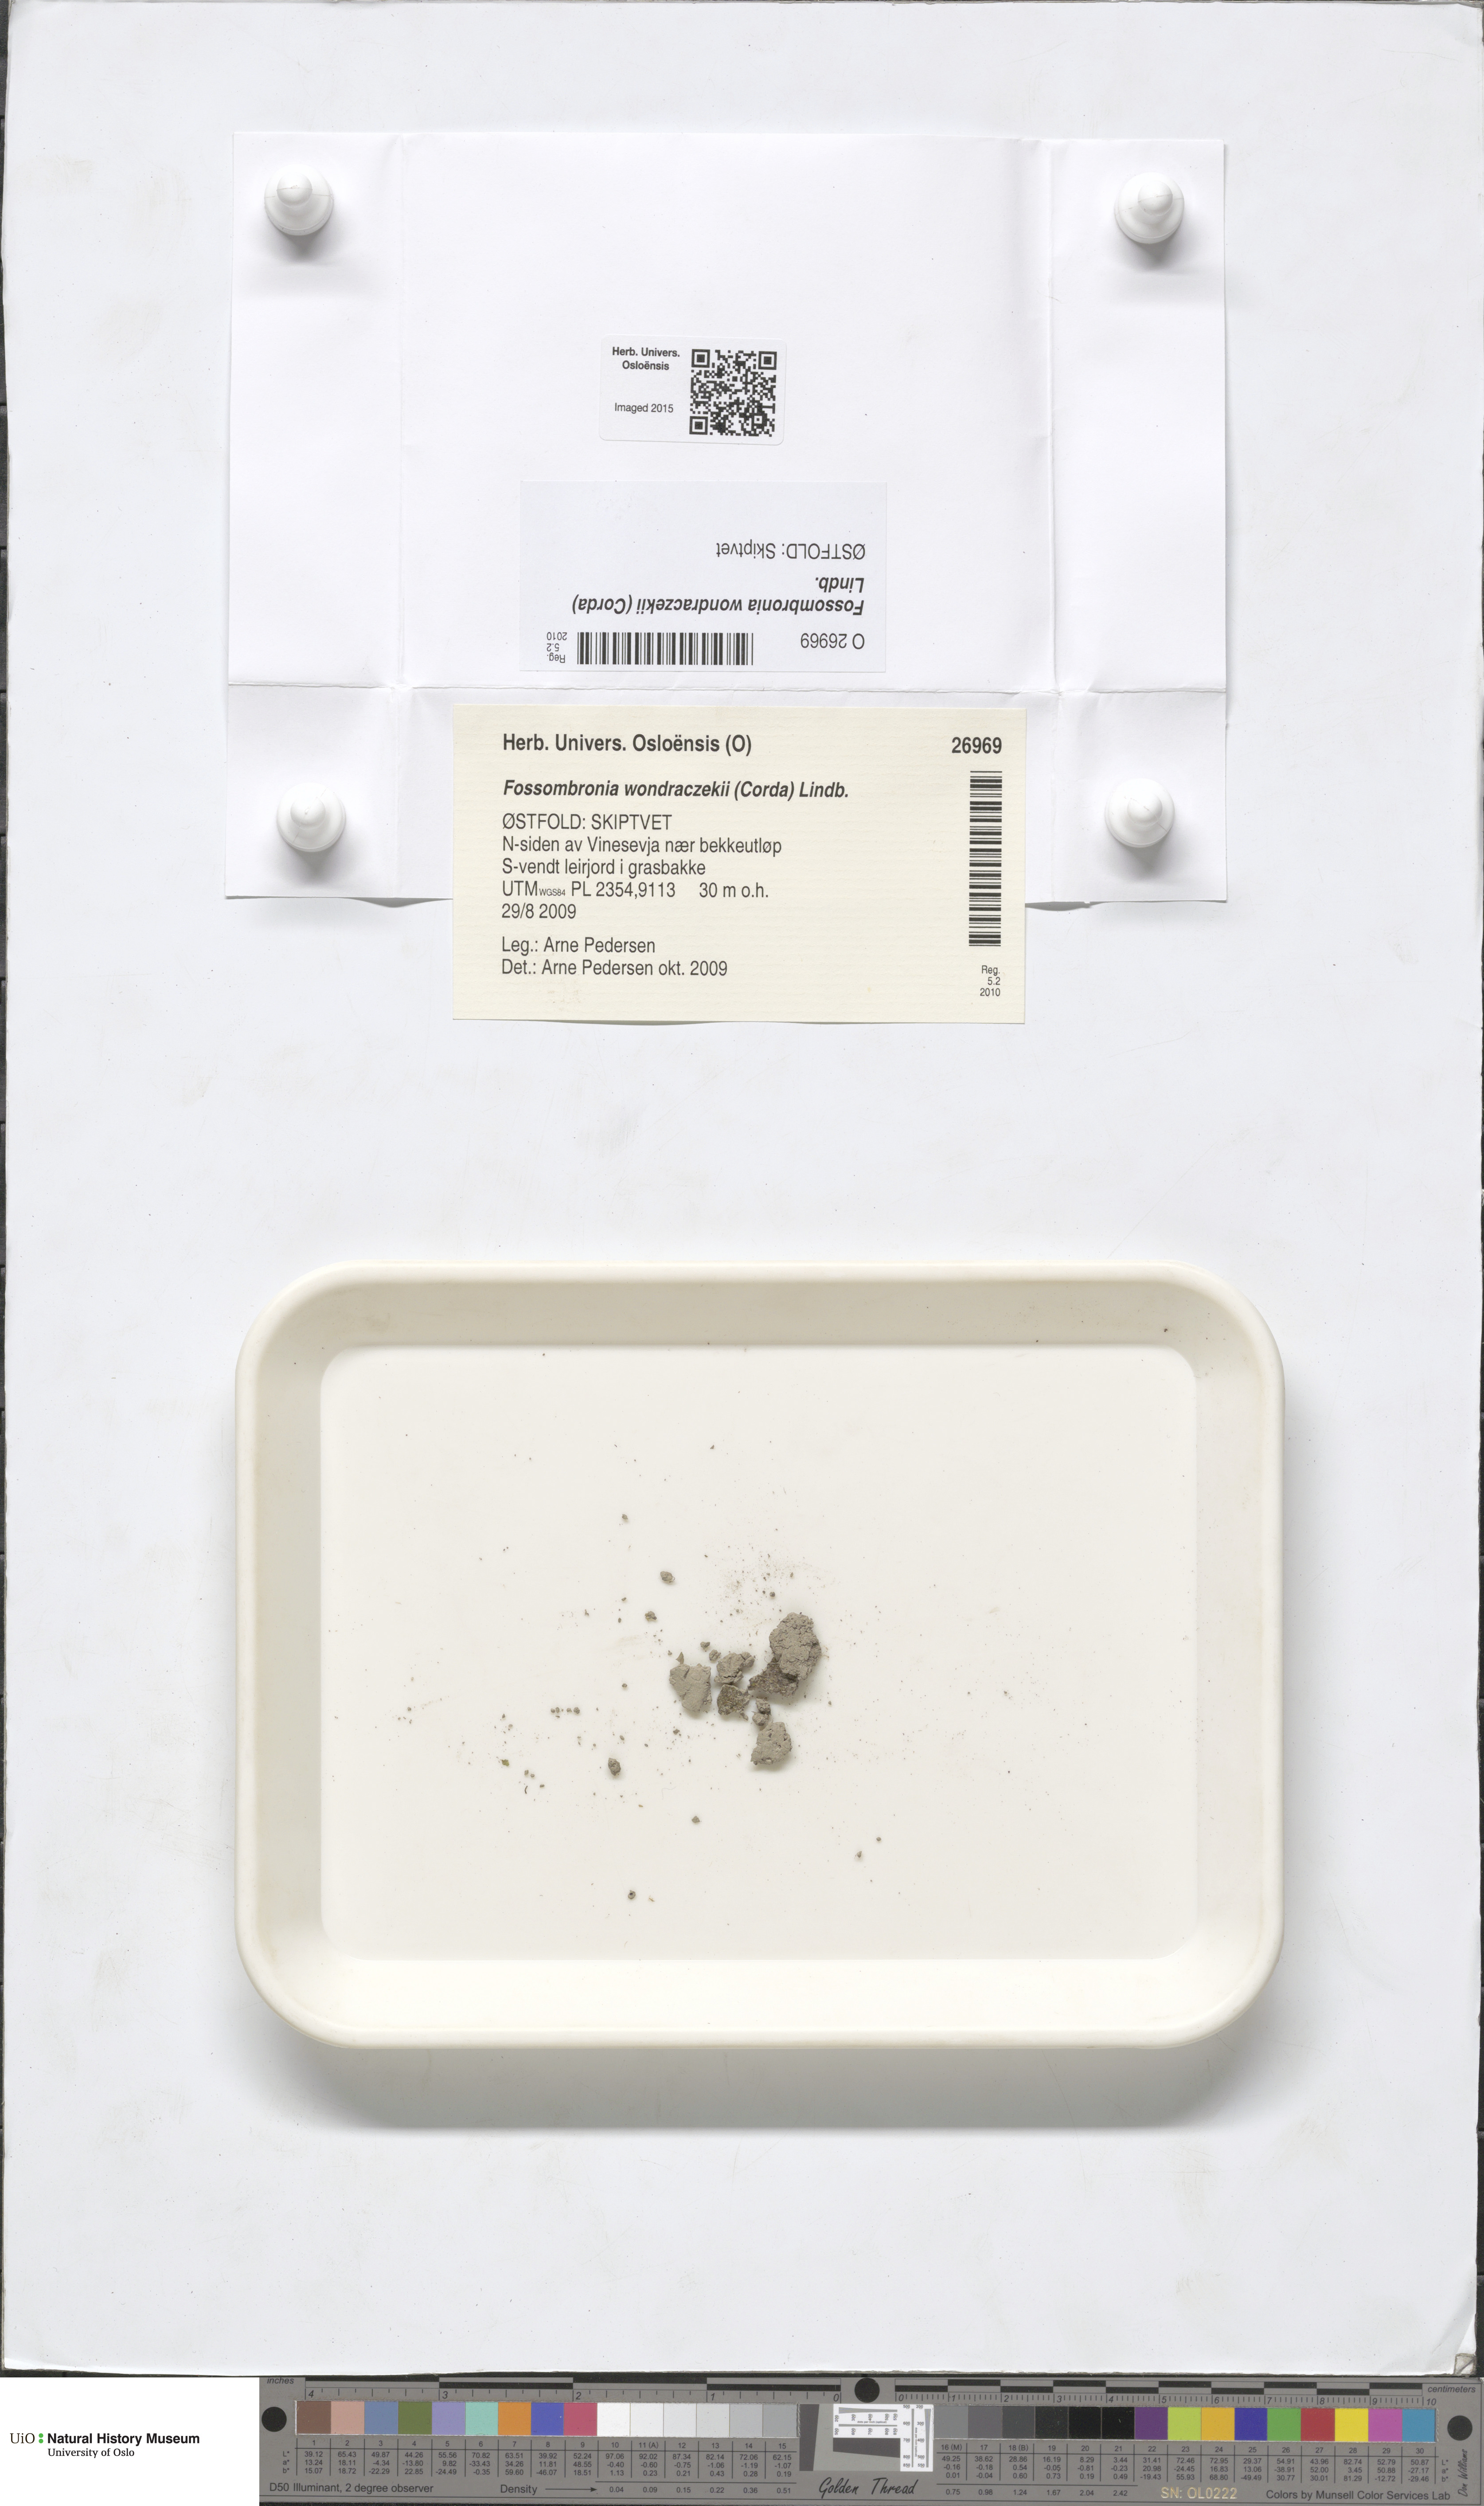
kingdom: Plantae
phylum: Marchantiophyta
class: Jungermanniopsida
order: Fossombroniales
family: Fossombroniaceae
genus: Fossombronia
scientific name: Fossombronia wondraczekii
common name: Acid frillwort
